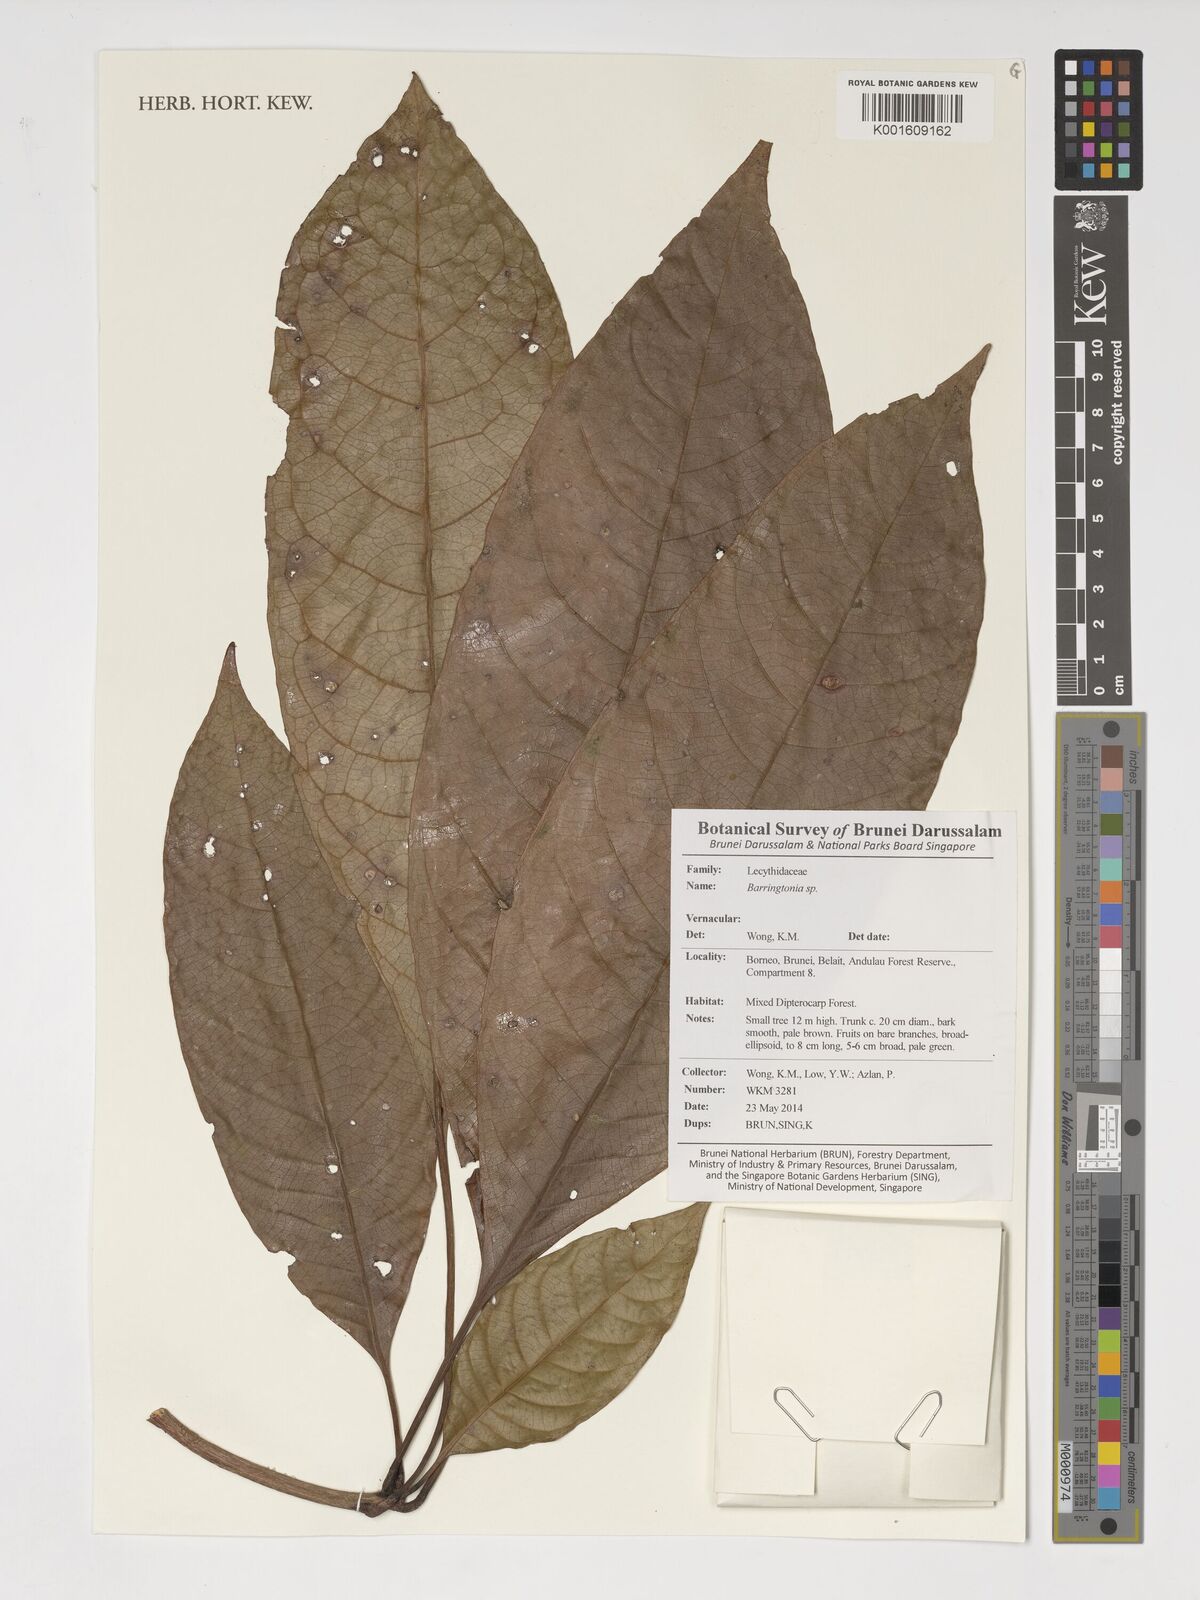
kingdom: Plantae
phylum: Tracheophyta
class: Magnoliopsida
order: Ericales
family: Lecythidaceae
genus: Barringtonia
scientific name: Barringtonia
